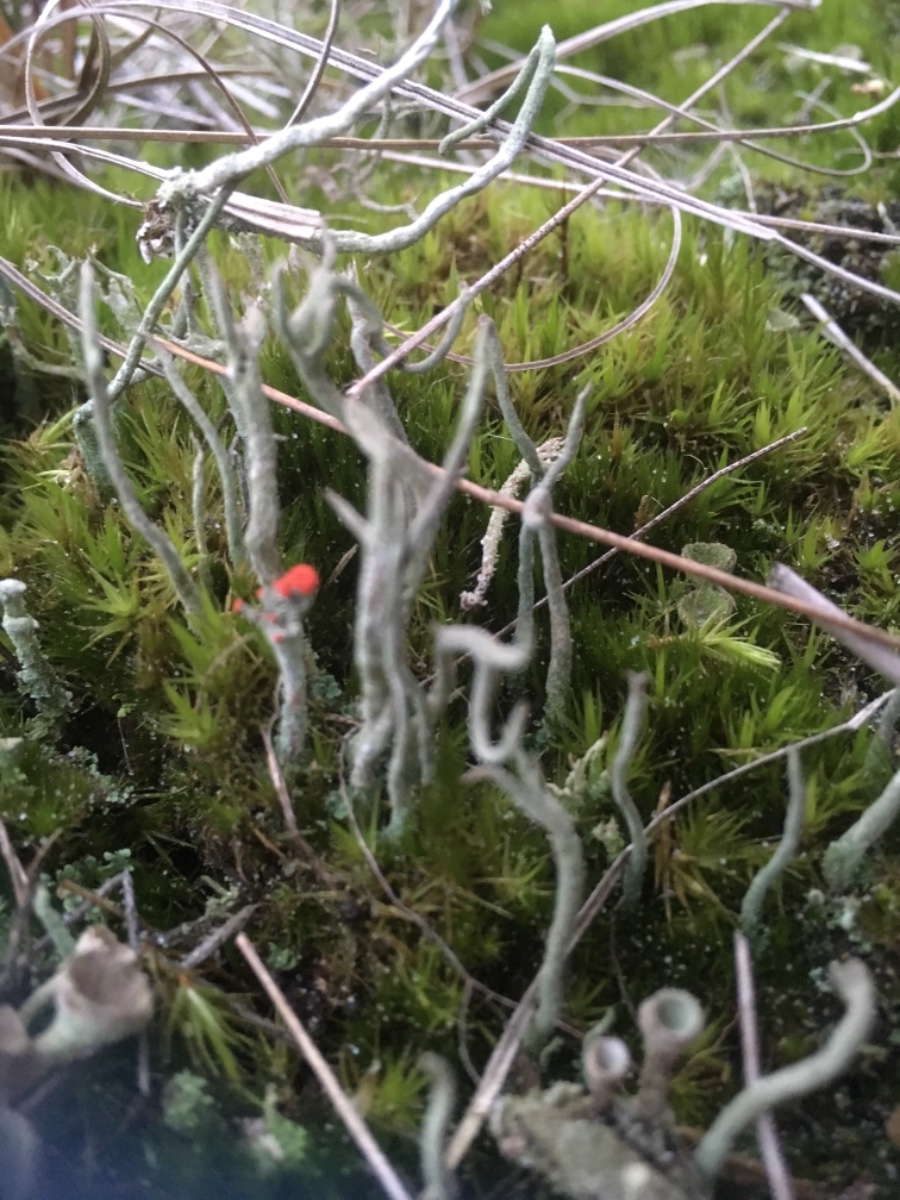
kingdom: Fungi
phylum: Ascomycota
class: Lecanoromycetes
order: Lecanorales
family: Cladoniaceae
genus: Cladonia
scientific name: Cladonia subulata
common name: spids bægerlav
